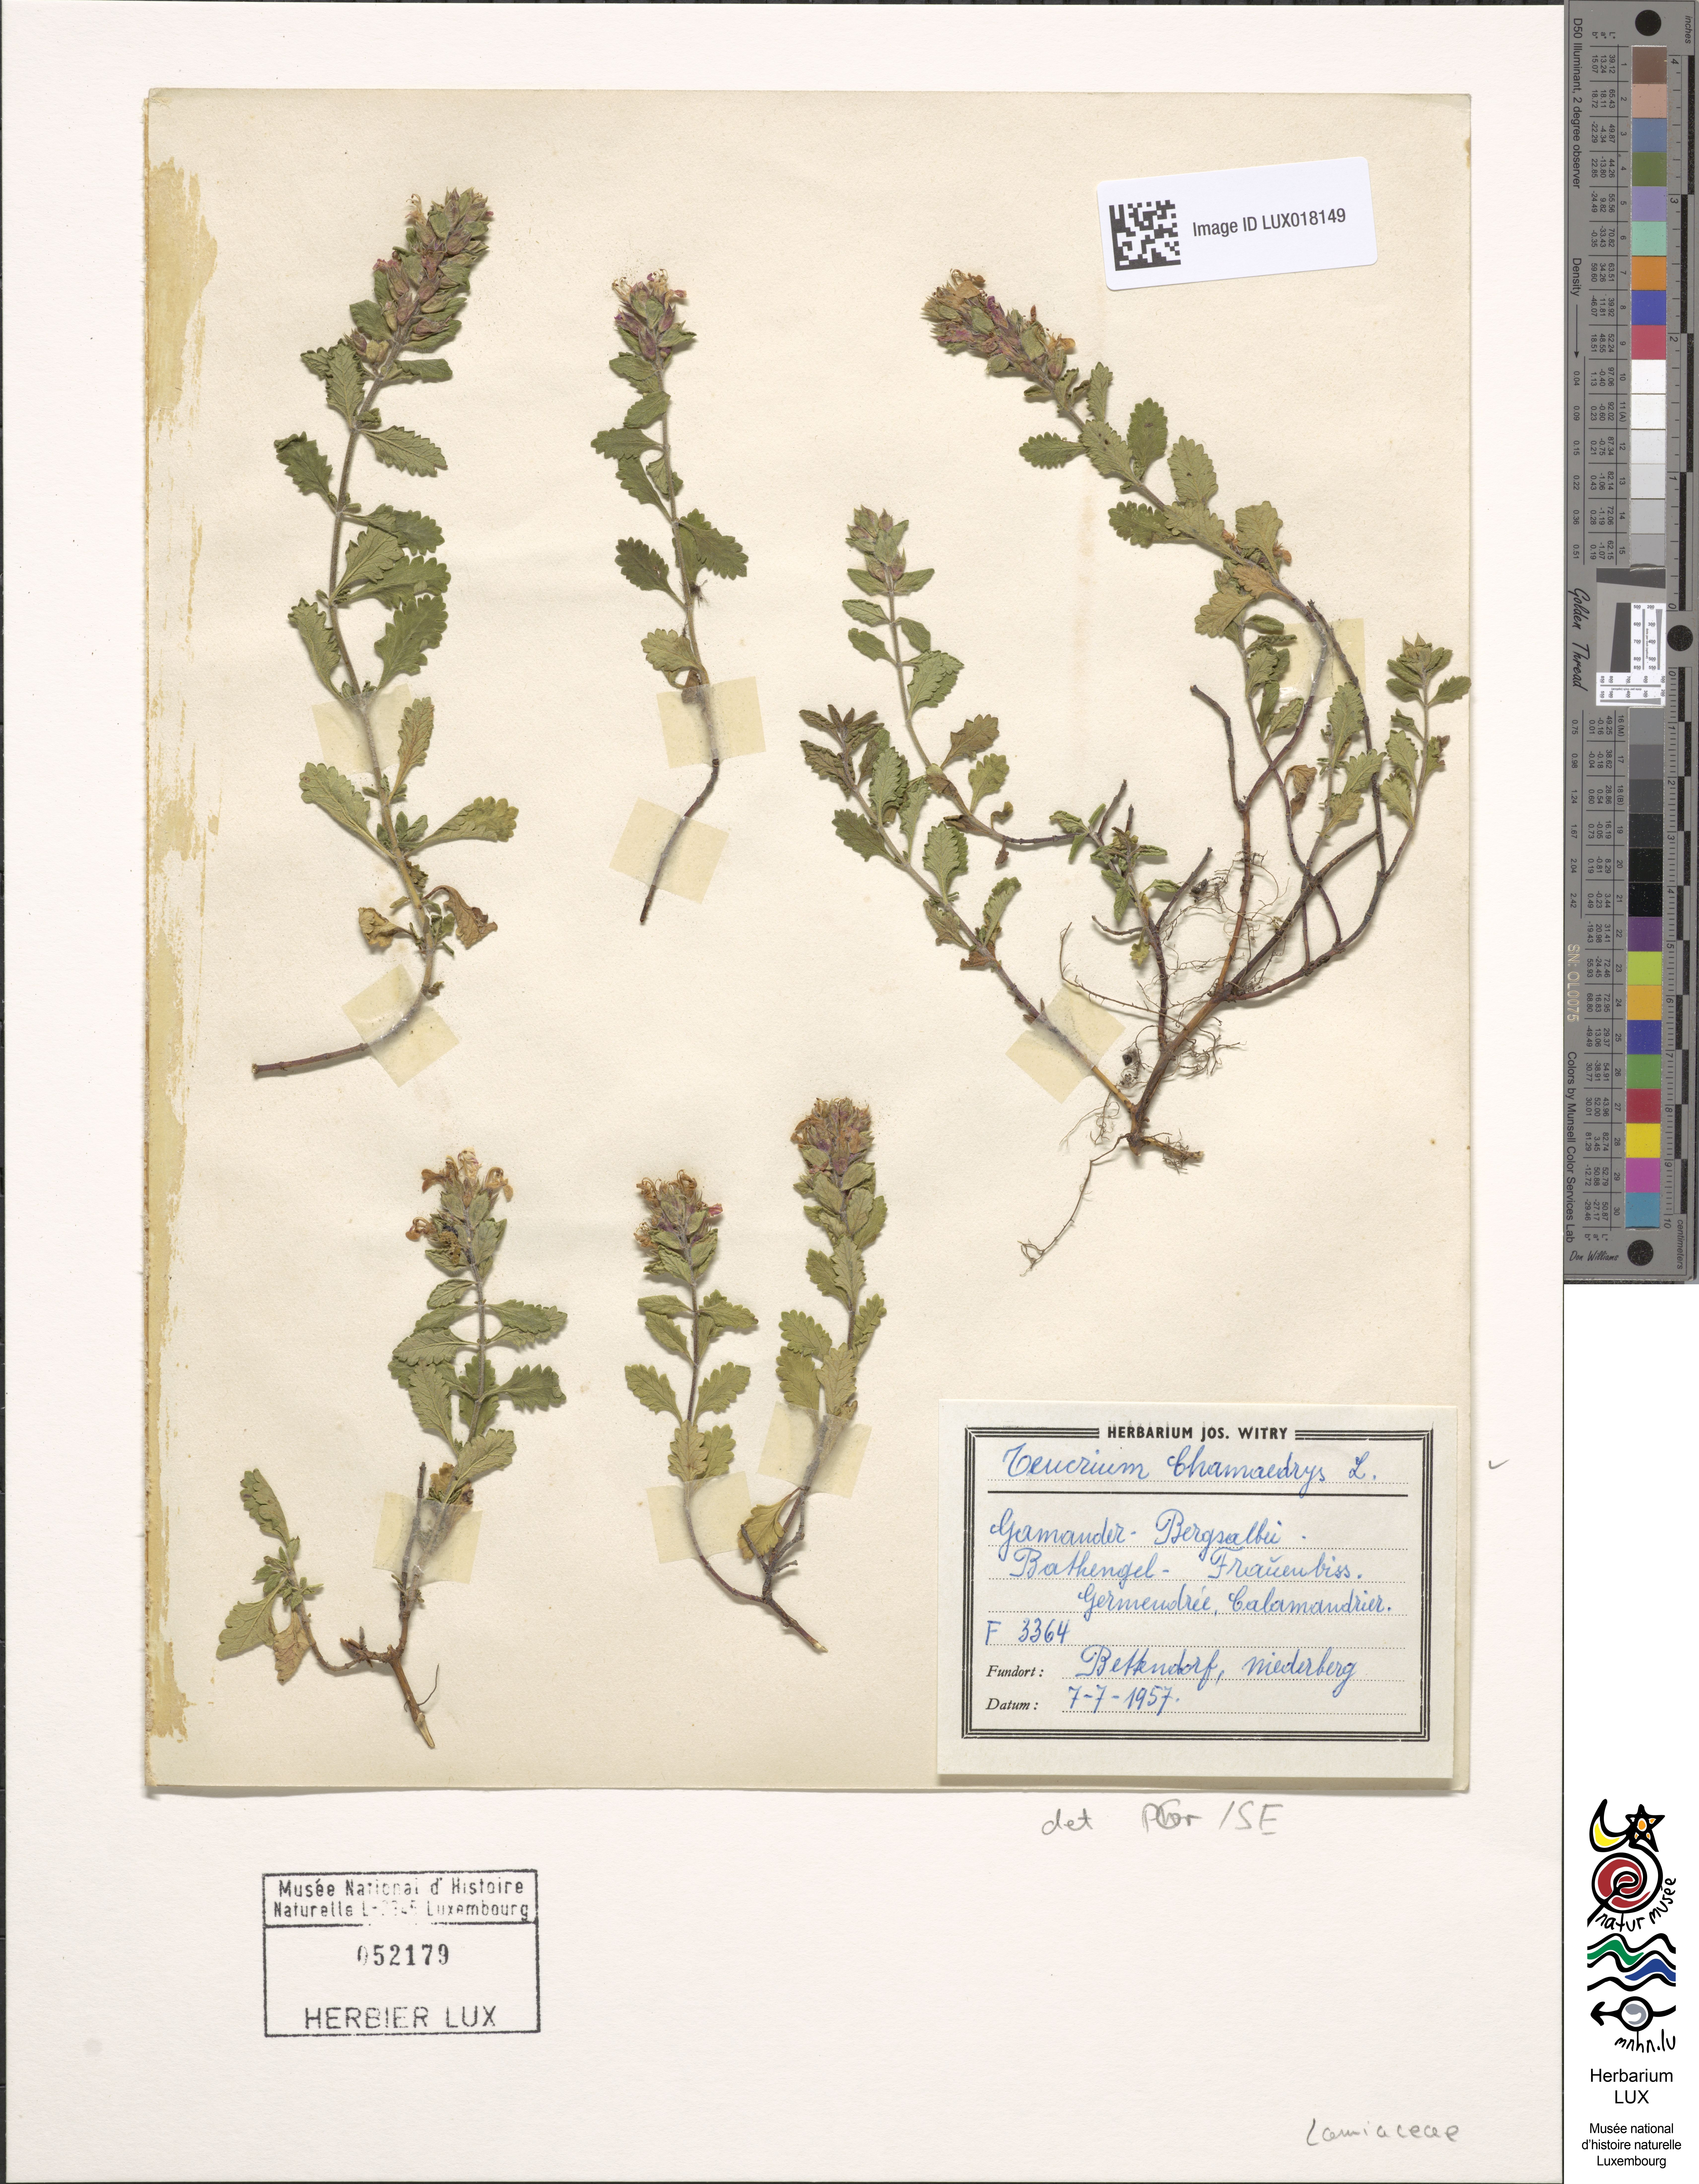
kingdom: Plantae
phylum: Tracheophyta
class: Magnoliopsida
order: Lamiales
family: Lamiaceae
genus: Teucrium
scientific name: Teucrium chamaedrys
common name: Wall germander
